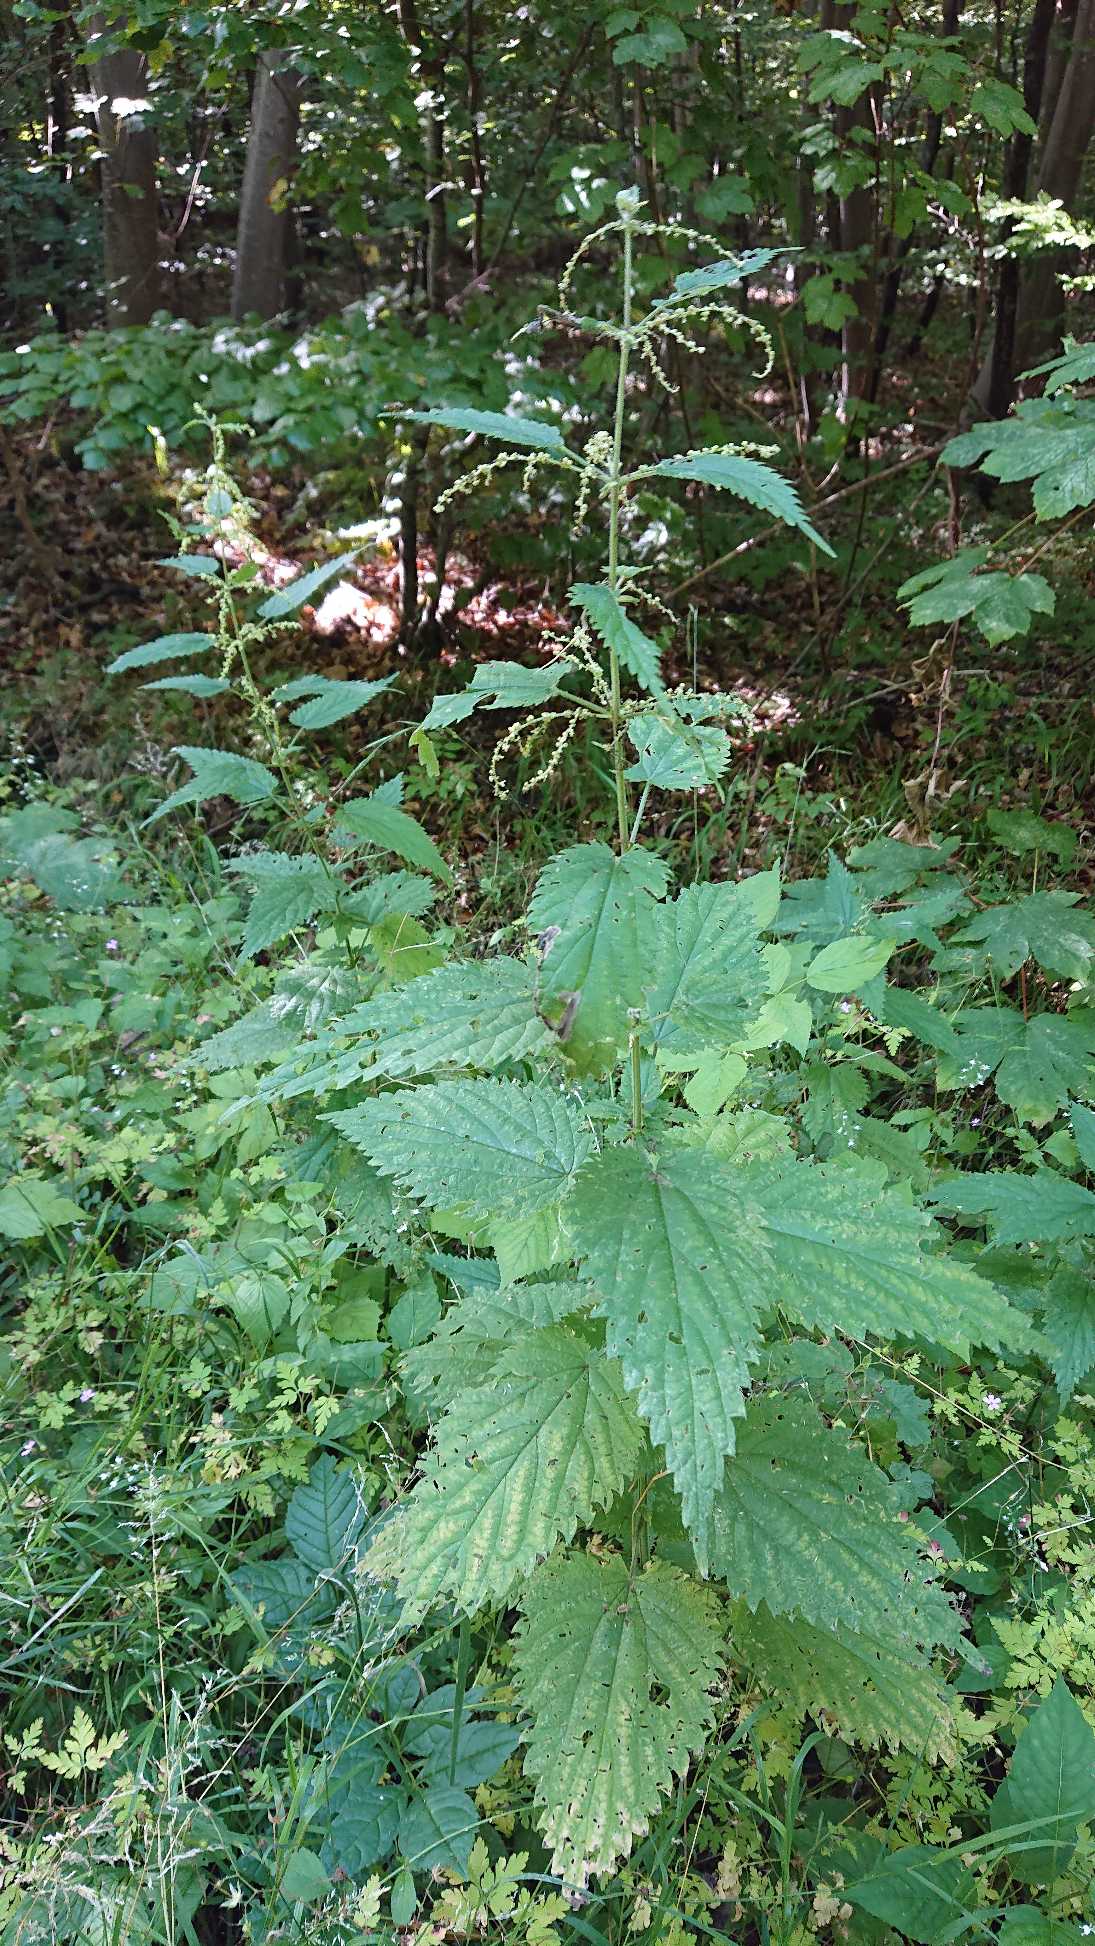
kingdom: Plantae
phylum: Tracheophyta
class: Magnoliopsida
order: Rosales
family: Urticaceae
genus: Urtica
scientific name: Urtica dioica
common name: Stor nælde
